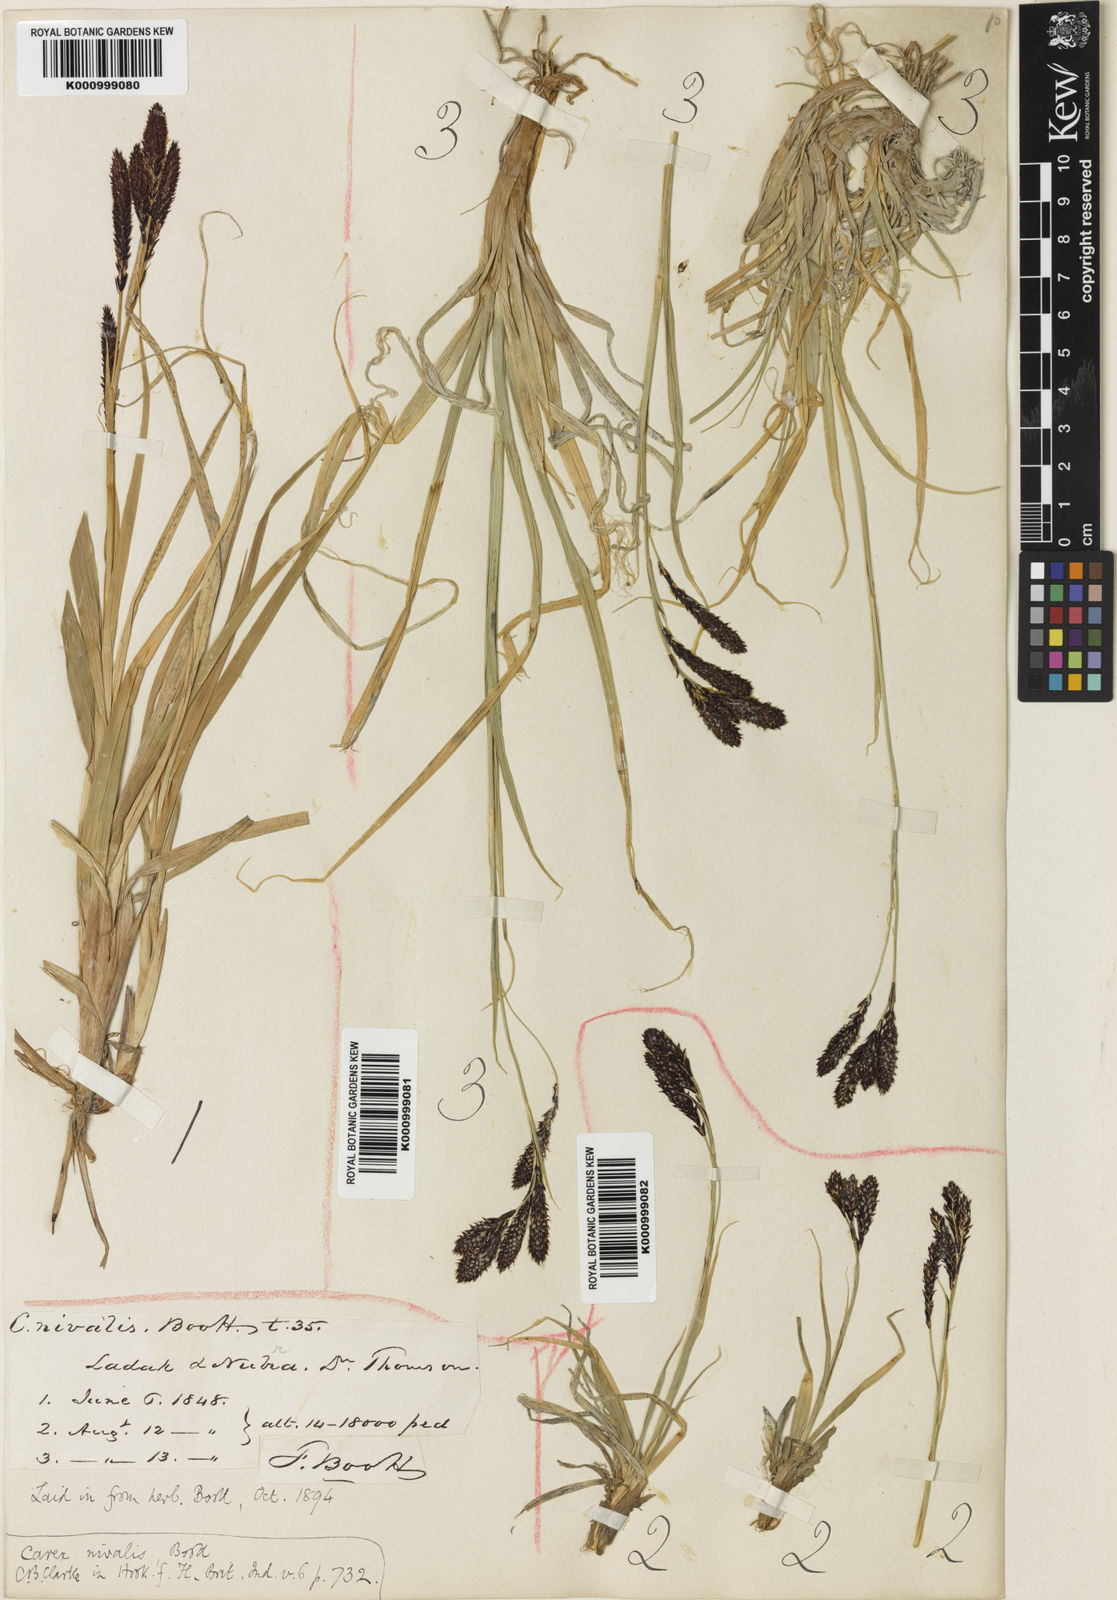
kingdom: Plantae
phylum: Tracheophyta
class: Liliopsida
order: Poales
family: Cyperaceae
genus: Carex
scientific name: Carex nivalis
